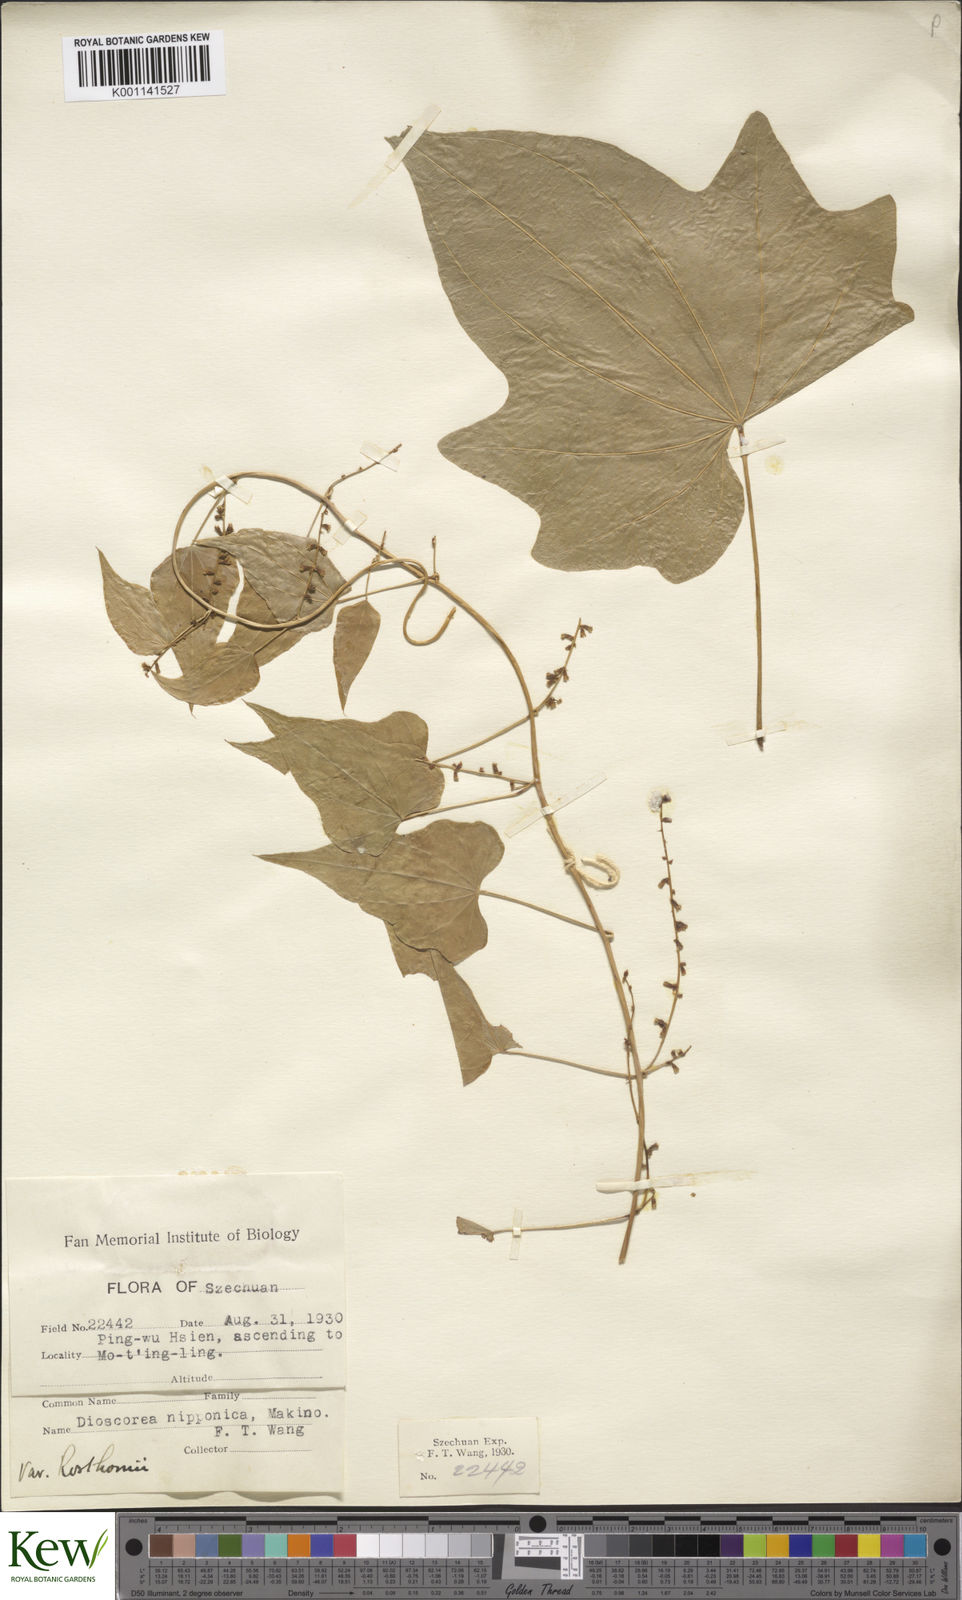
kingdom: Plantae
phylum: Tracheophyta
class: Liliopsida
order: Dioscoreales
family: Dioscoreaceae
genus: Dioscorea
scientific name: Dioscorea nipponica
